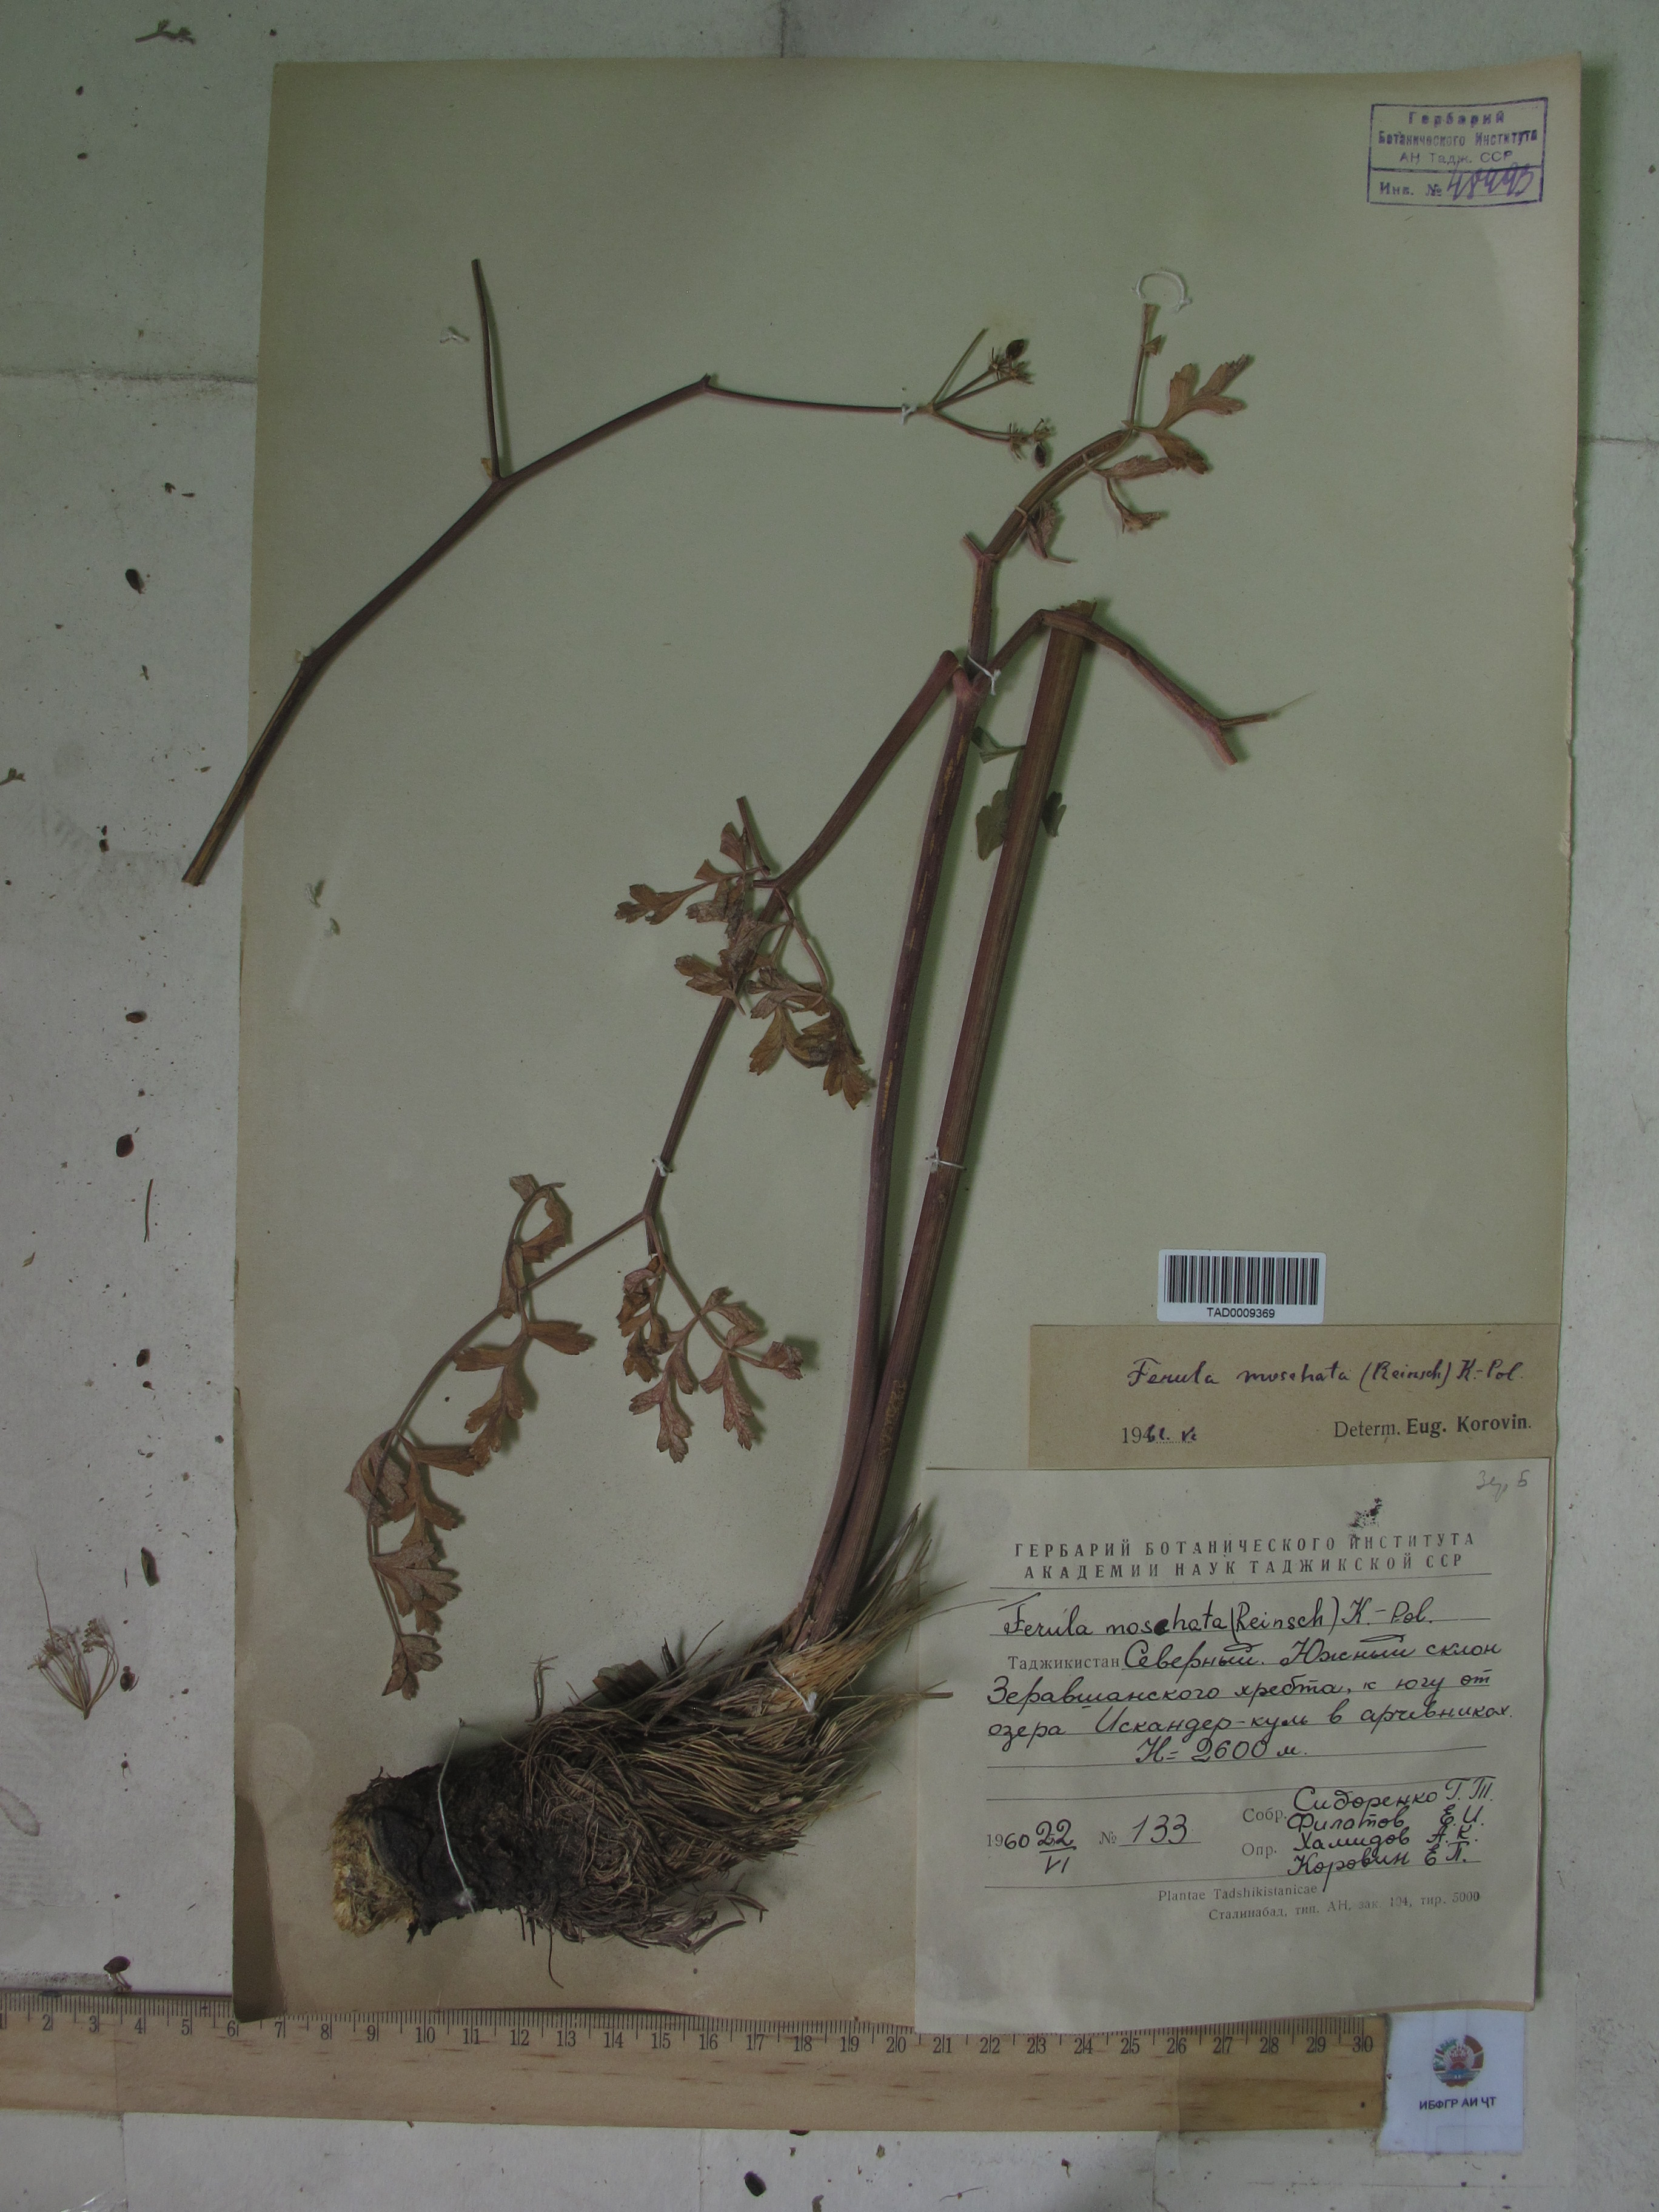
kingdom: Plantae
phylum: Tracheophyta
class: Magnoliopsida
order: Apiales
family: Apiaceae
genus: Ferula
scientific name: Ferula moschata
